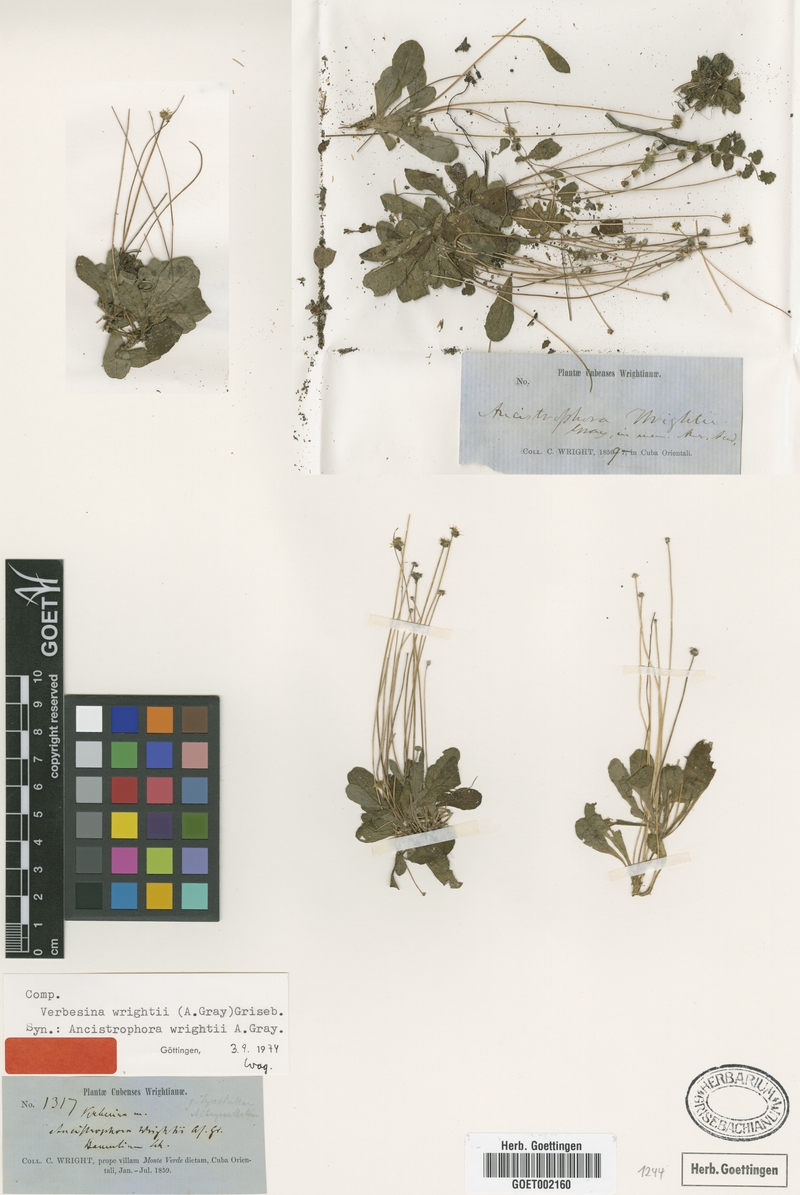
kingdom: Plantae
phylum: Tracheophyta
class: Magnoliopsida
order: Asterales
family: Asteraceae
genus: Verbesina
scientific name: Verbesina rothrockii
